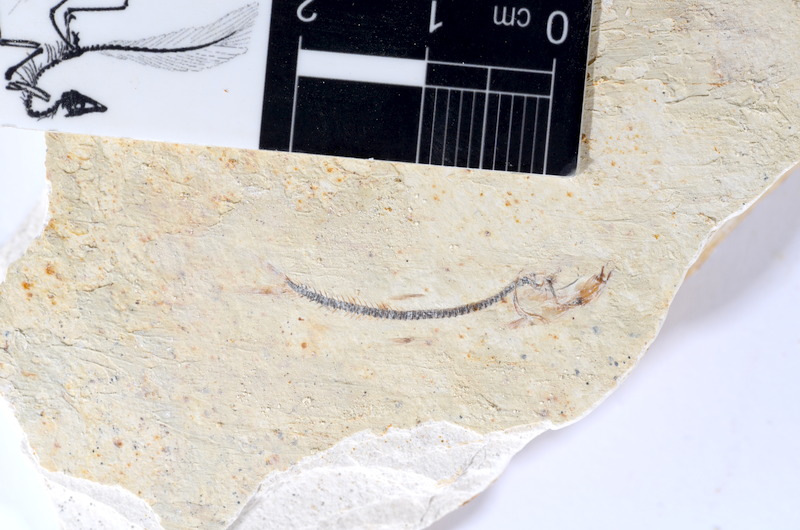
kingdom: Animalia
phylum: Chordata
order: Salmoniformes
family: Orthogonikleithridae
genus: Orthogonikleithrus
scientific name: Orthogonikleithrus hoelli
